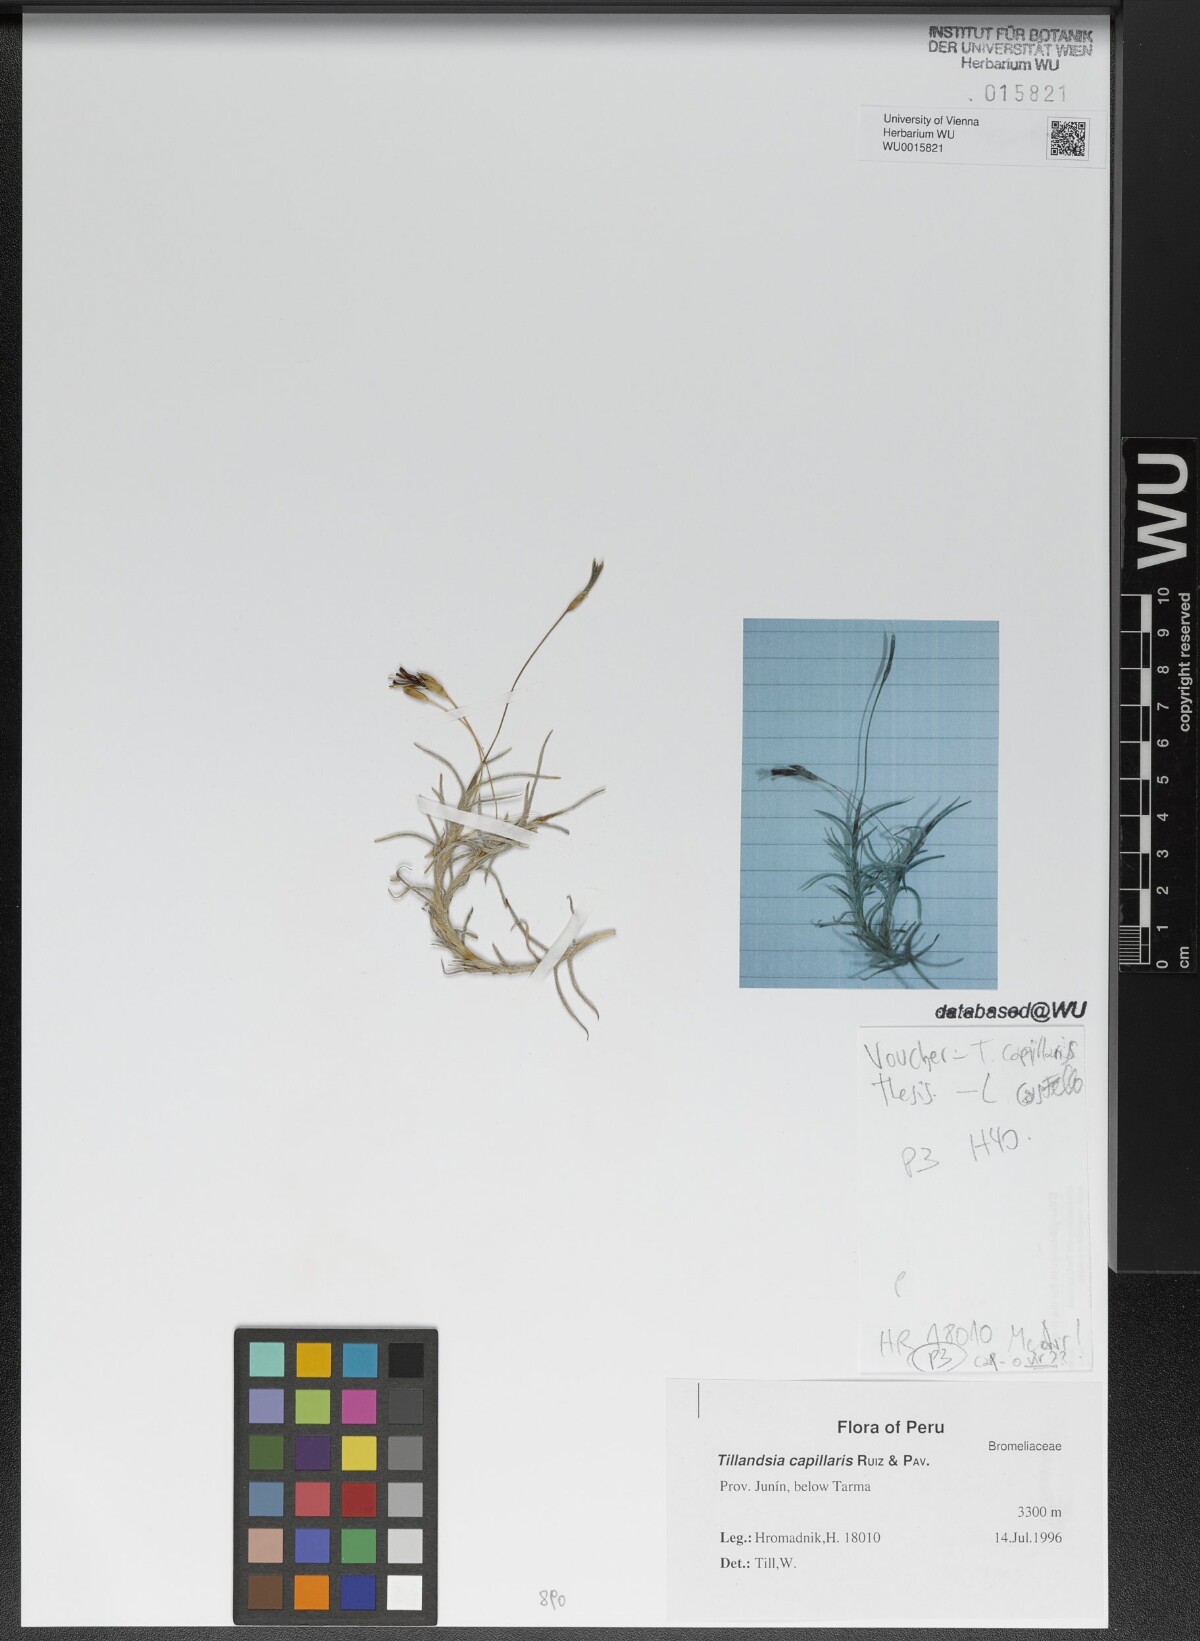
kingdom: Plantae
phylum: Tracheophyta
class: Liliopsida
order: Poales
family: Bromeliaceae
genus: Tillandsia
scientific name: Tillandsia capillaris
